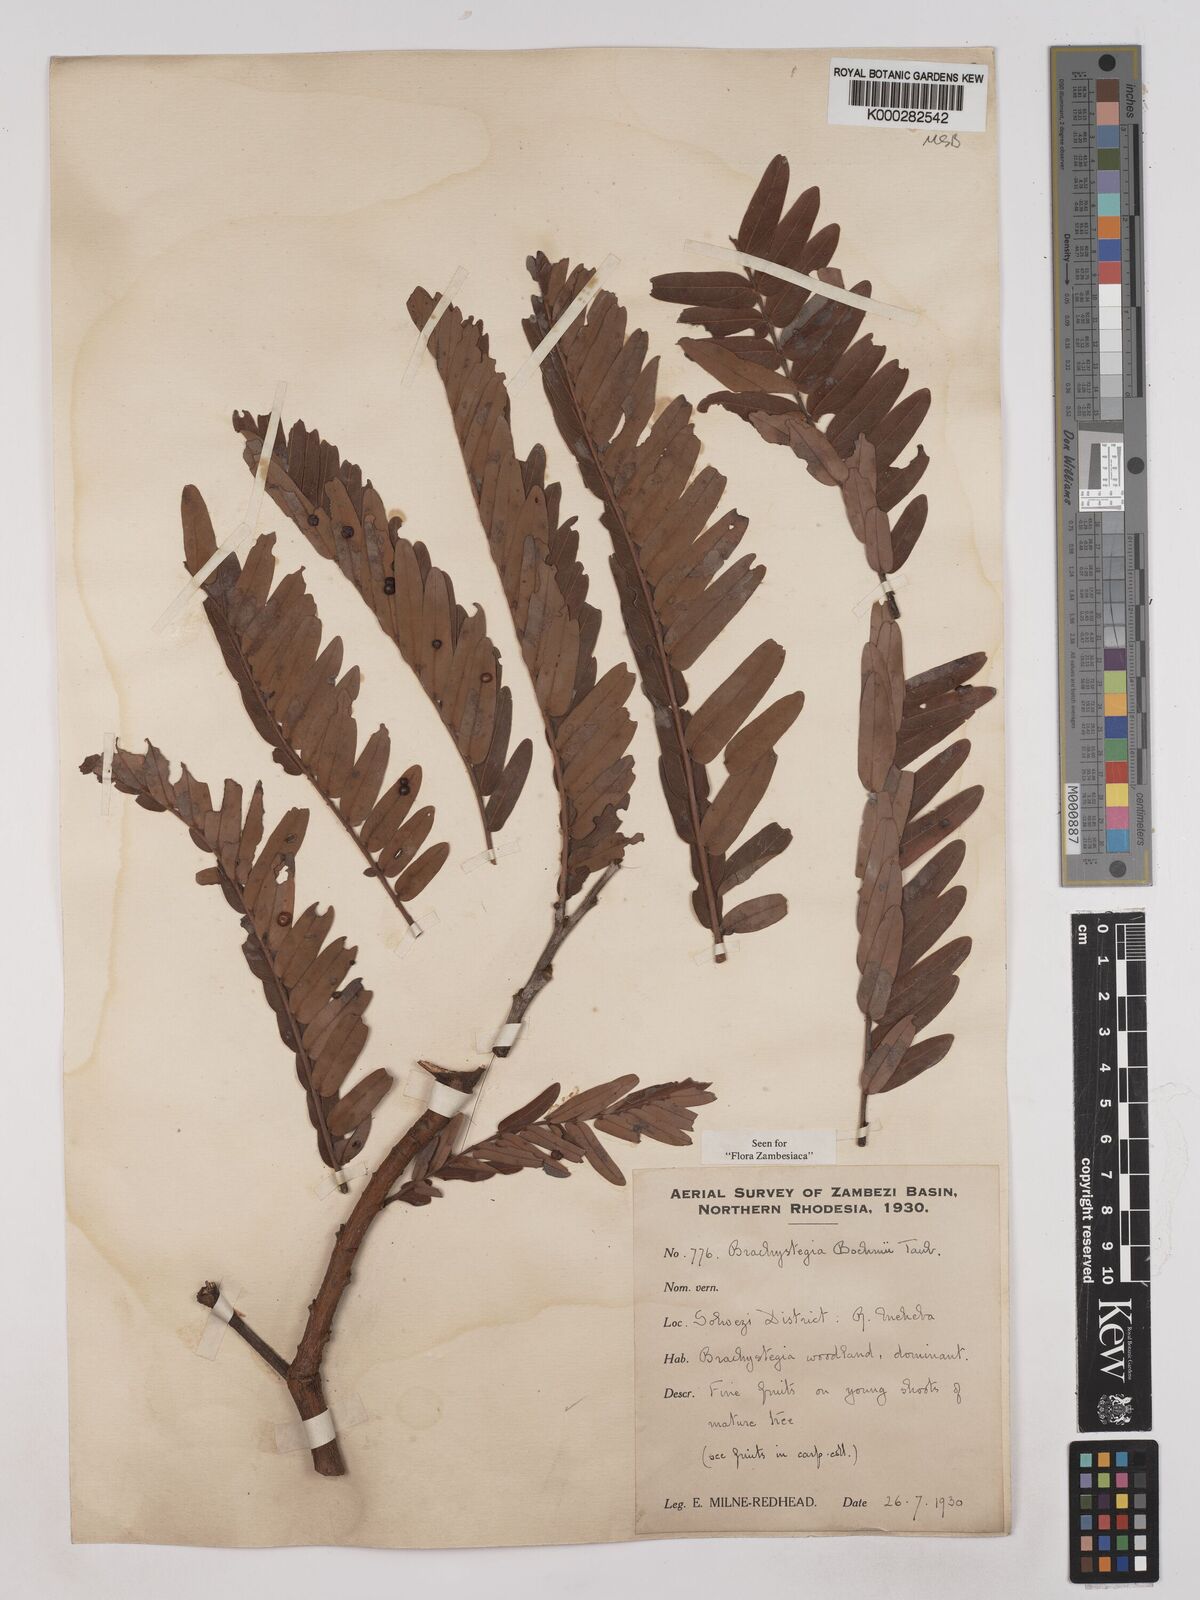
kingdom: Plantae
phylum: Tracheophyta
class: Magnoliopsida
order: Fabales
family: Fabaceae
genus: Brachystegia
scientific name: Brachystegia boehmii
